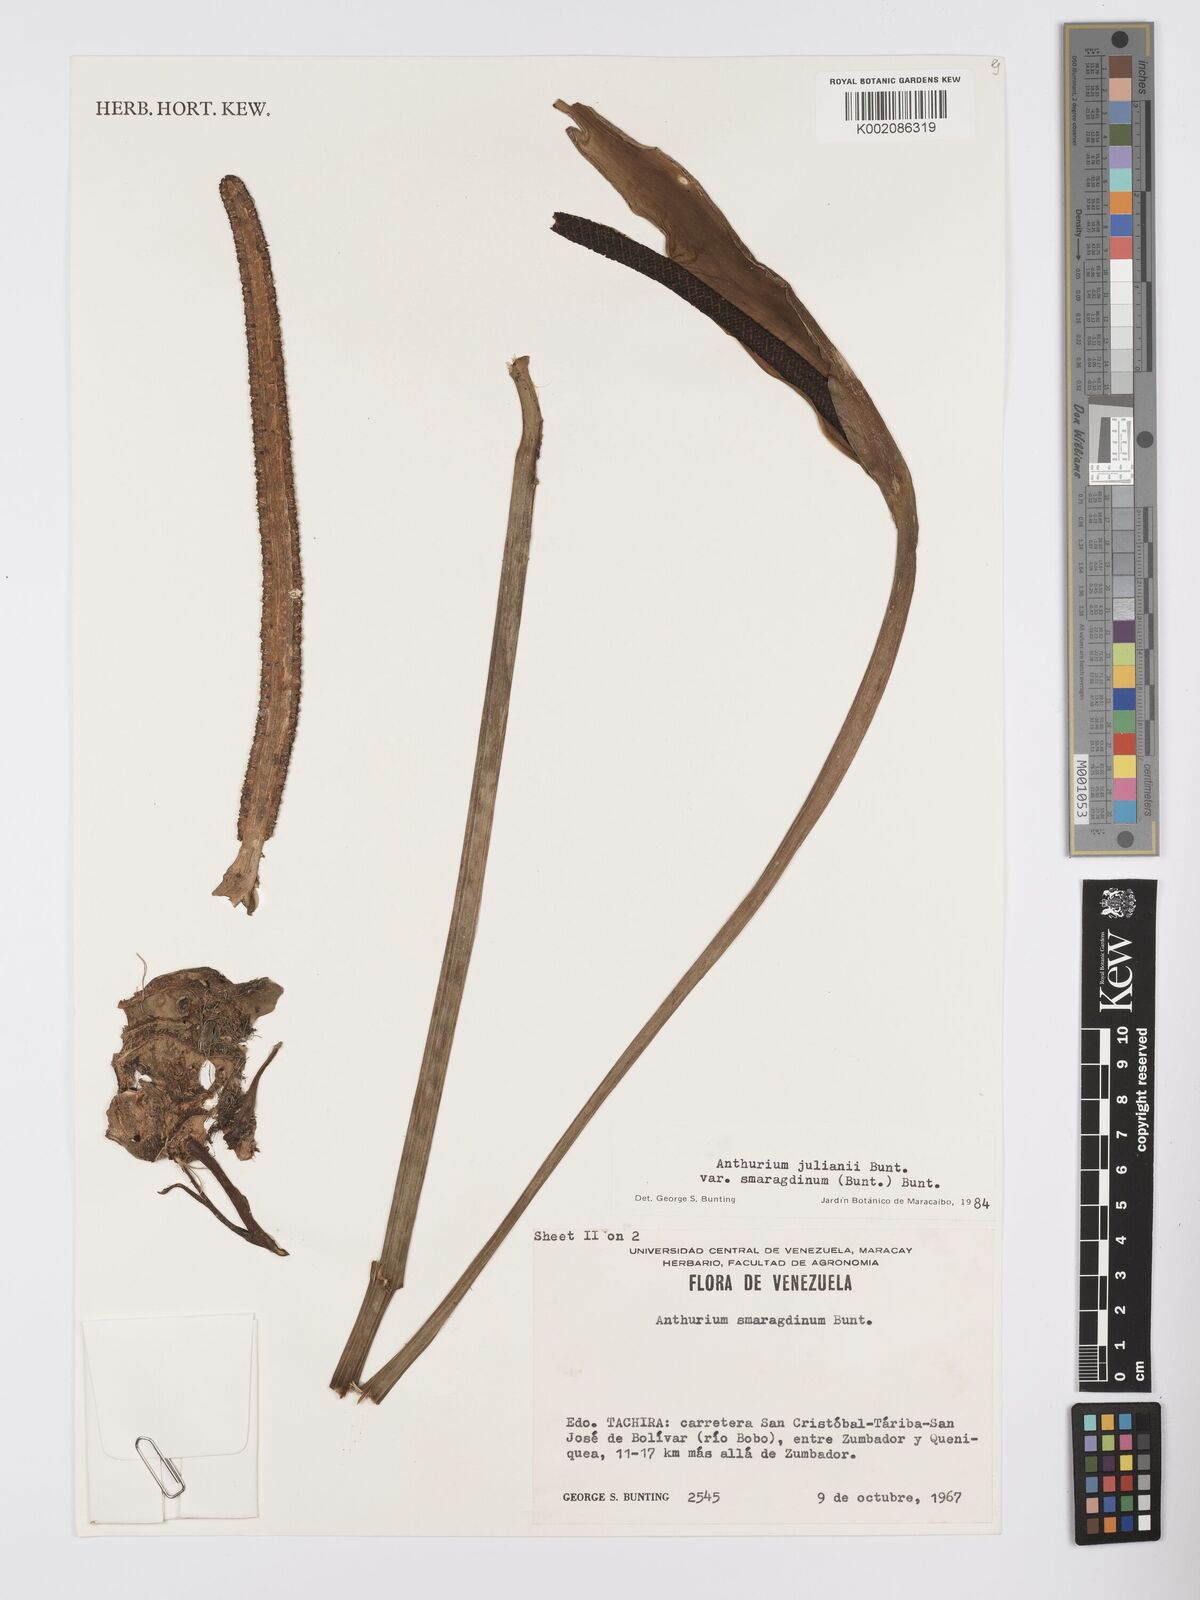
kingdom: Plantae
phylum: Tracheophyta
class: Liliopsida
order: Alismatales
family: Araceae
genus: Anthurium
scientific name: Anthurium julianii
